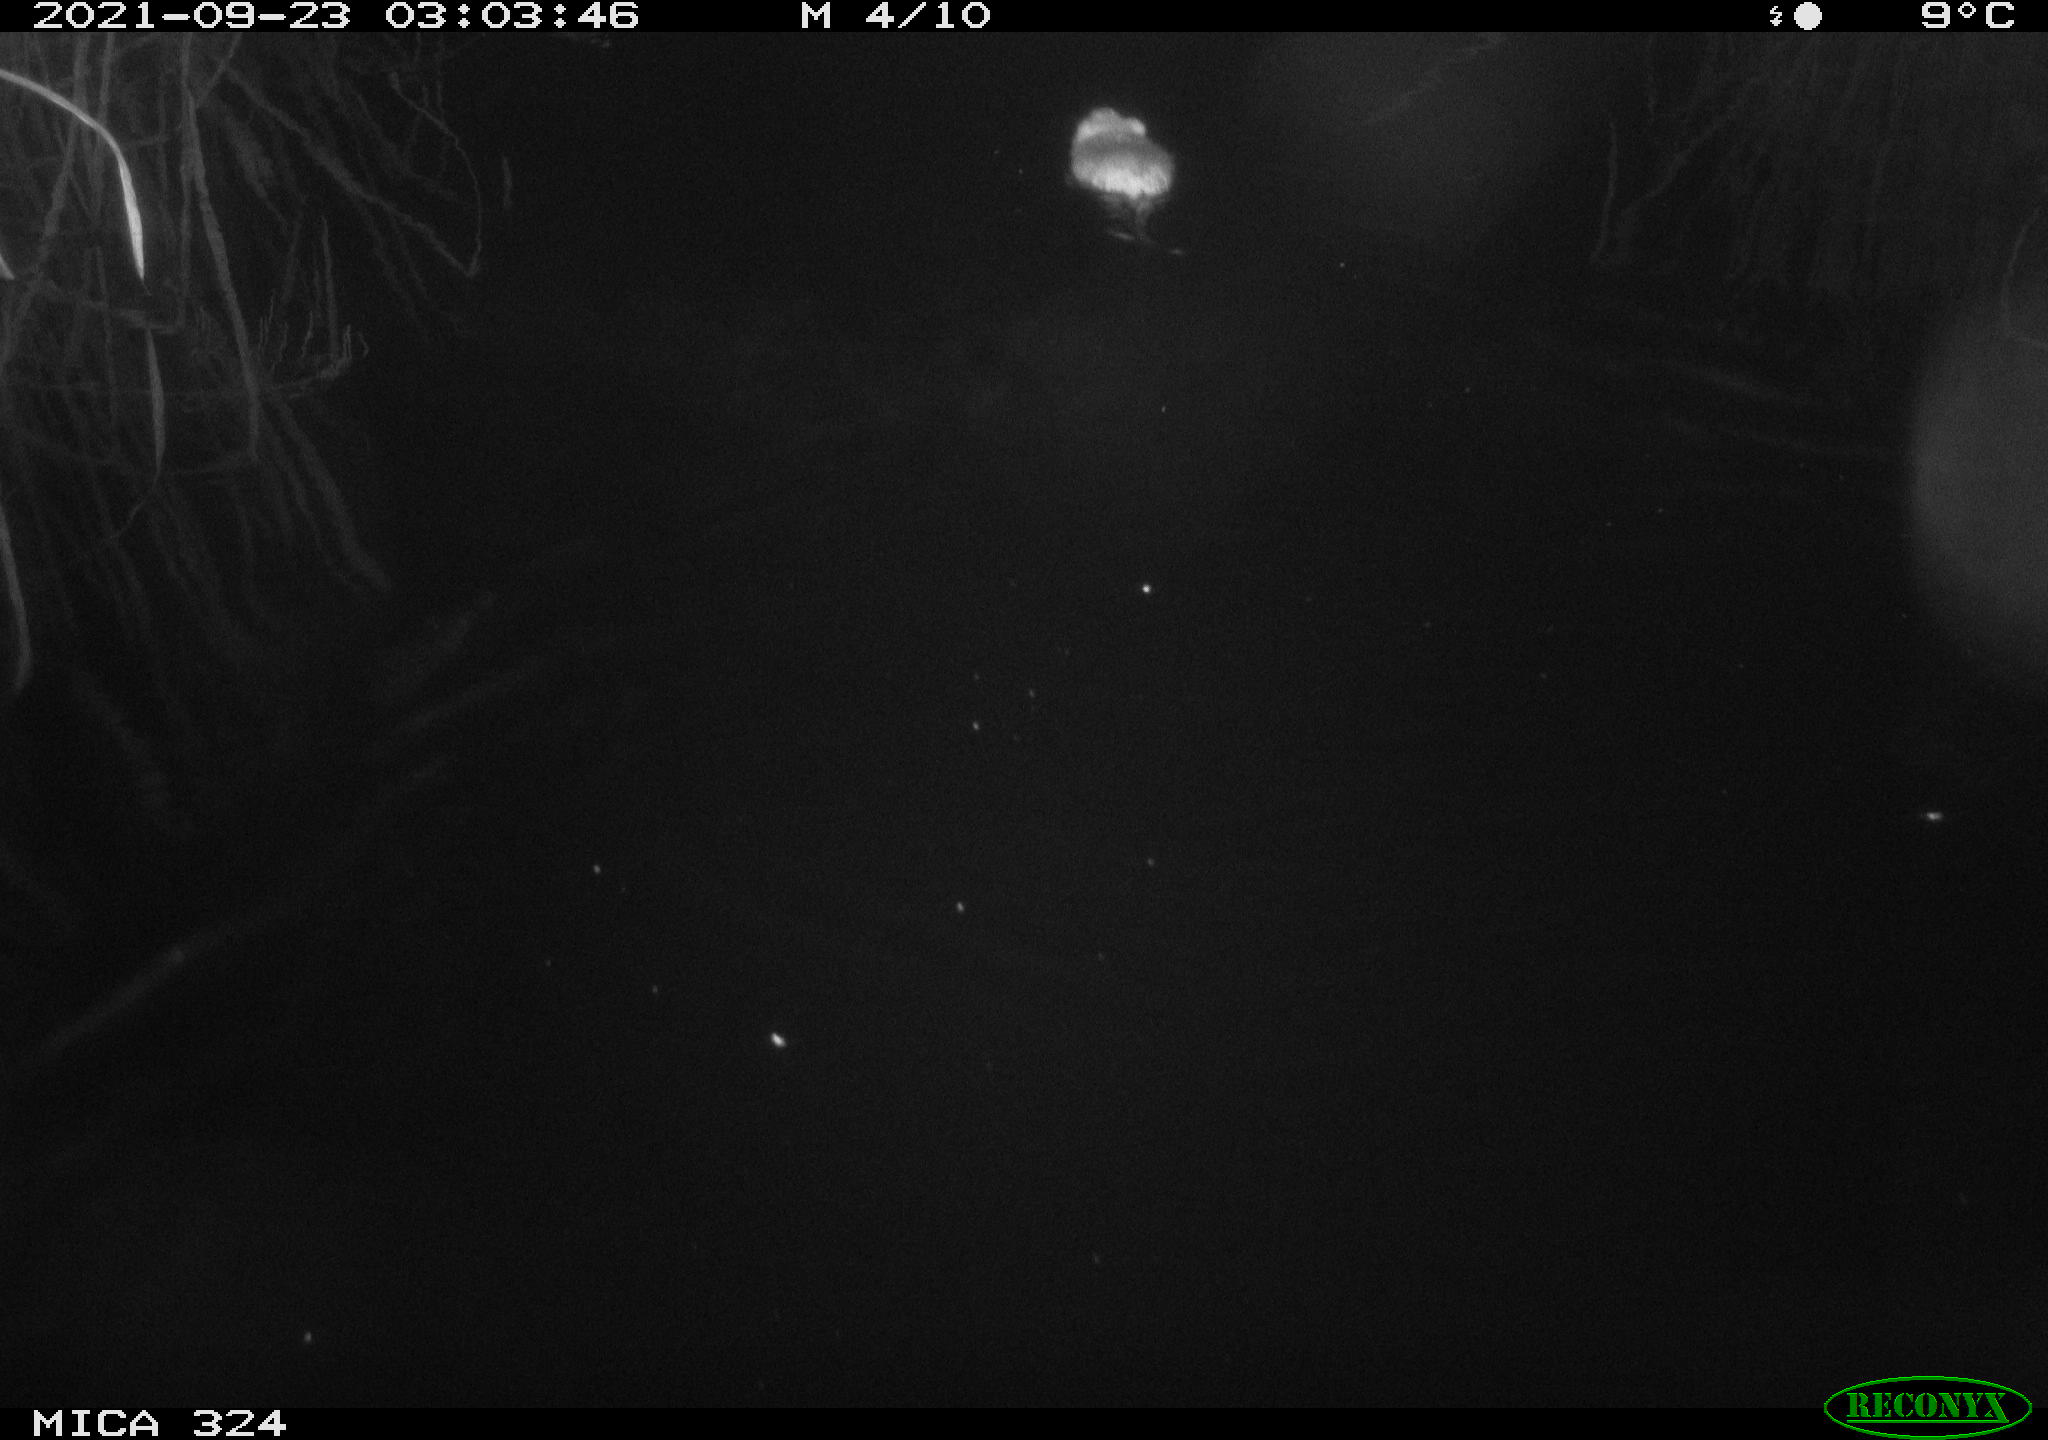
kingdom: Animalia
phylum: Chordata
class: Mammalia
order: Rodentia
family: Cricetidae
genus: Ondatra
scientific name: Ondatra zibethicus
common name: Muskrat
